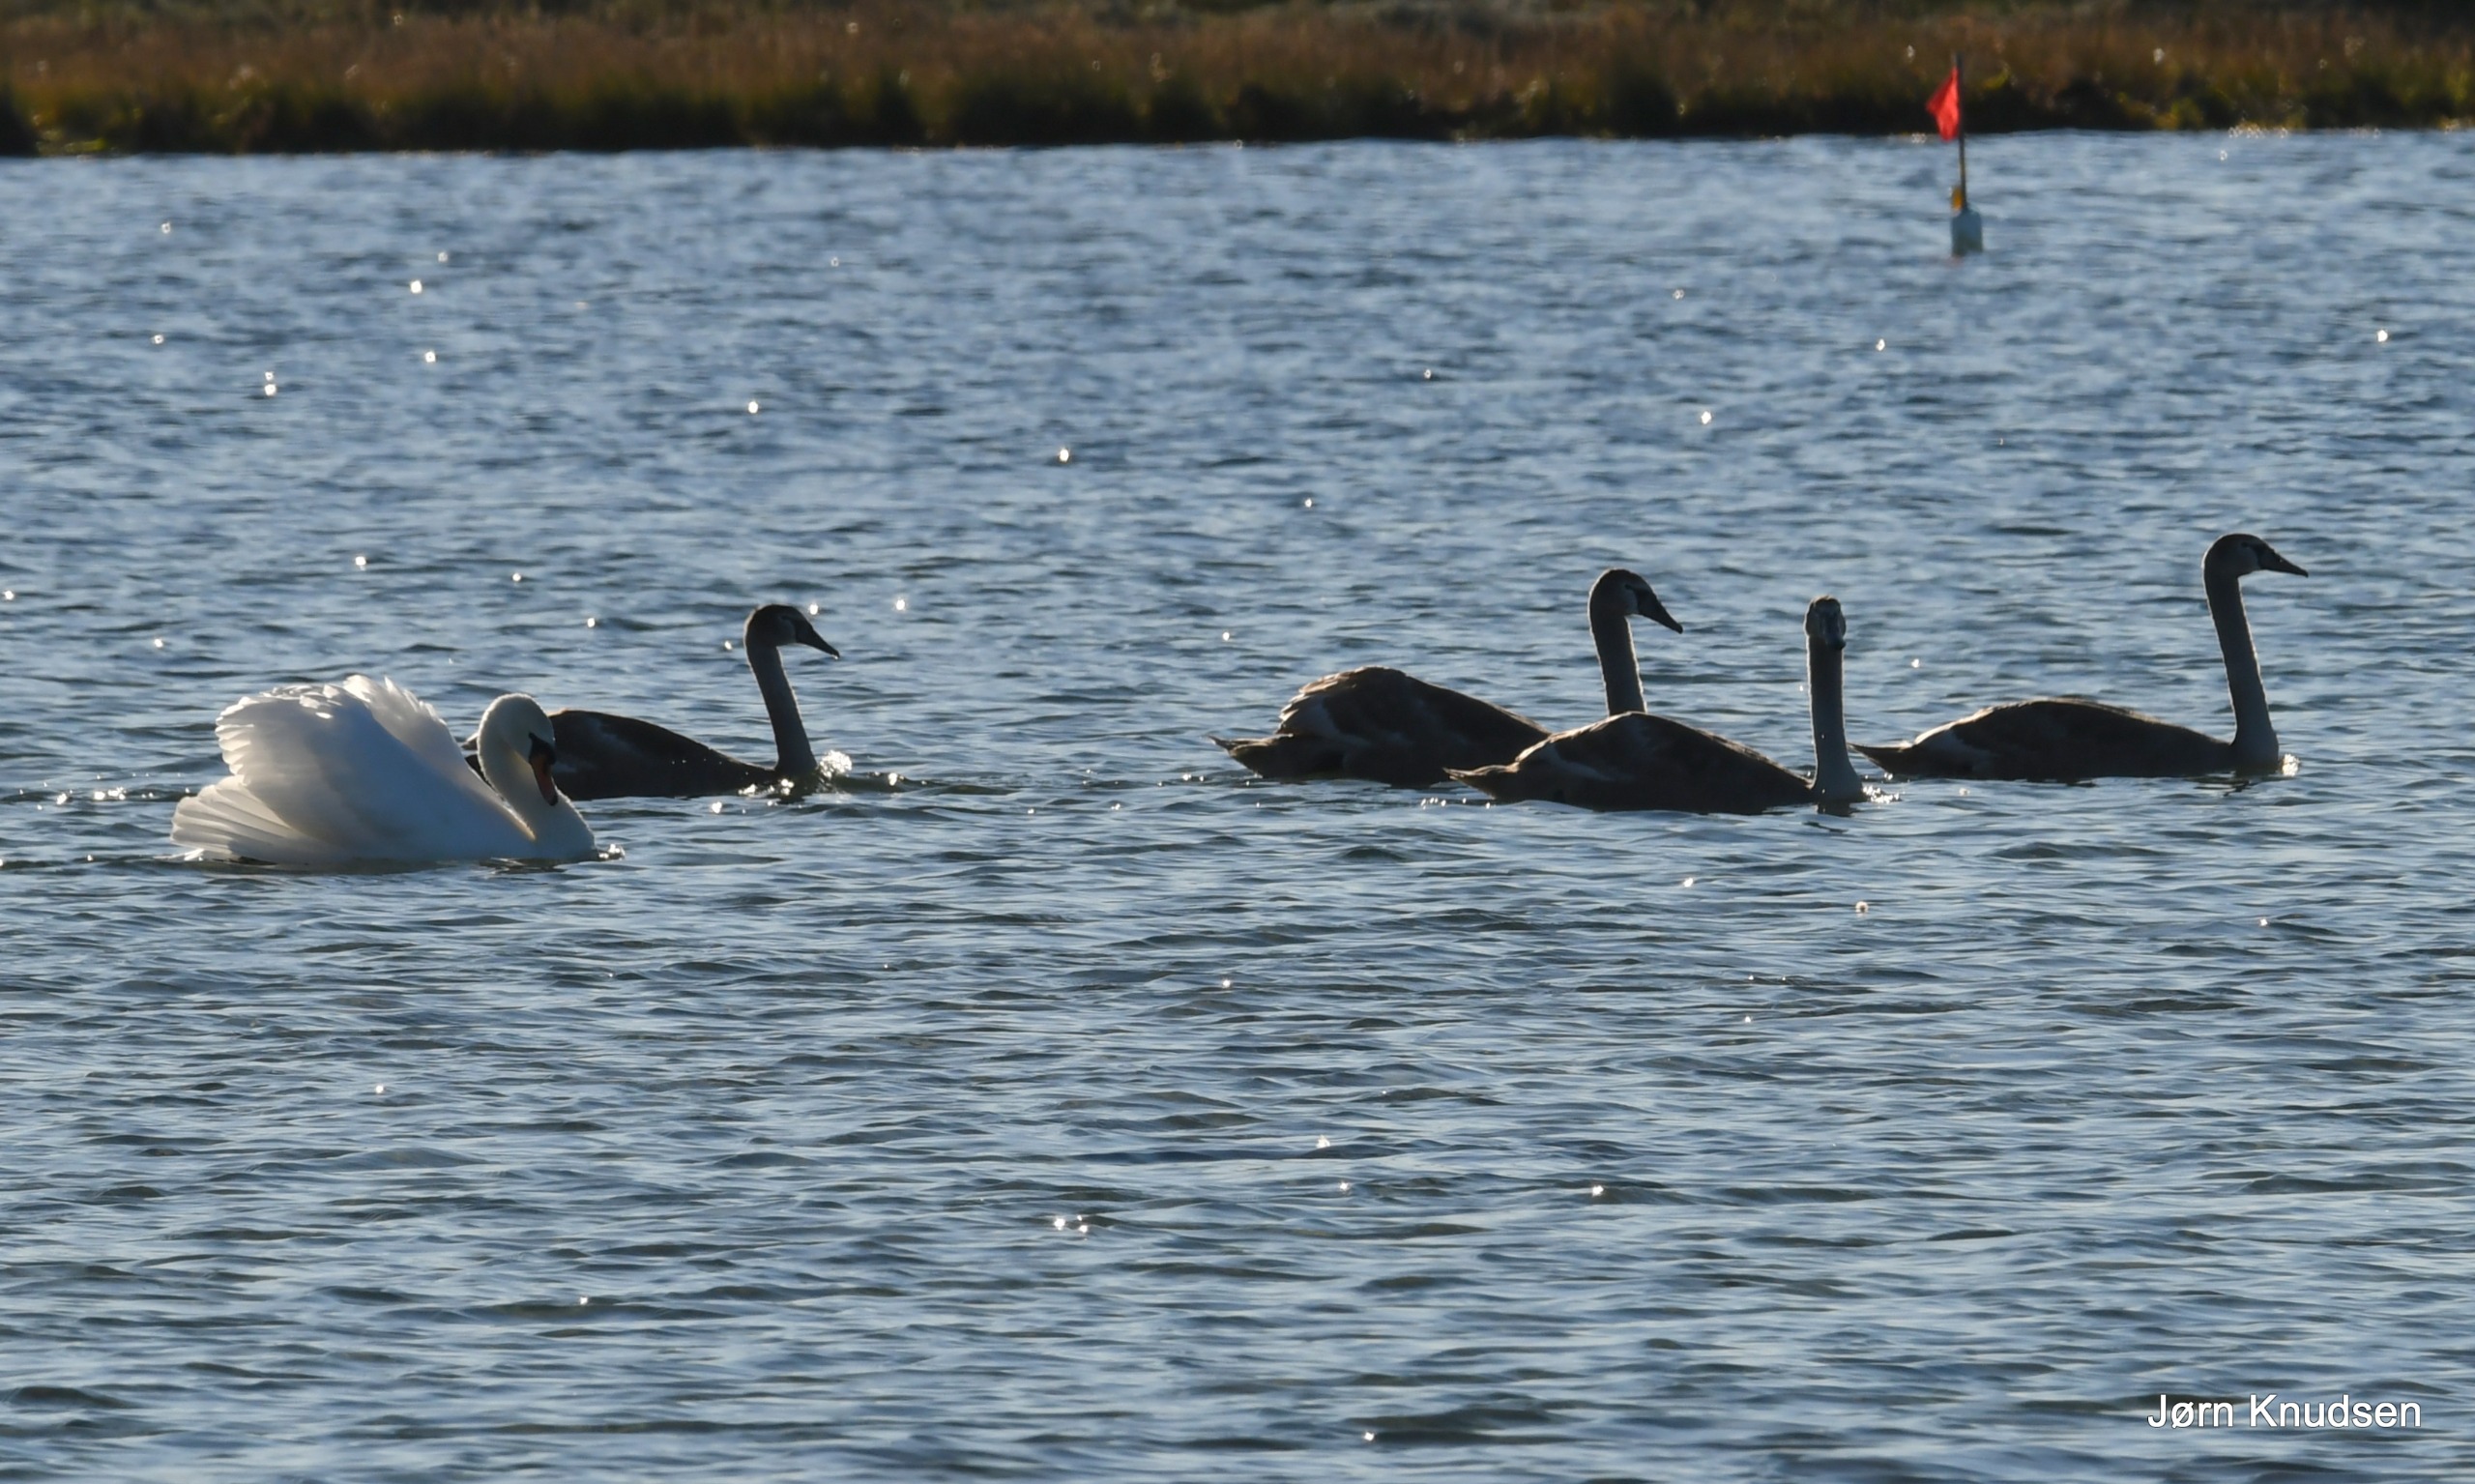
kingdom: Animalia
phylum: Chordata
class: Aves
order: Anseriformes
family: Anatidae
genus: Cygnus
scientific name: Cygnus olor
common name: Knopsvane
